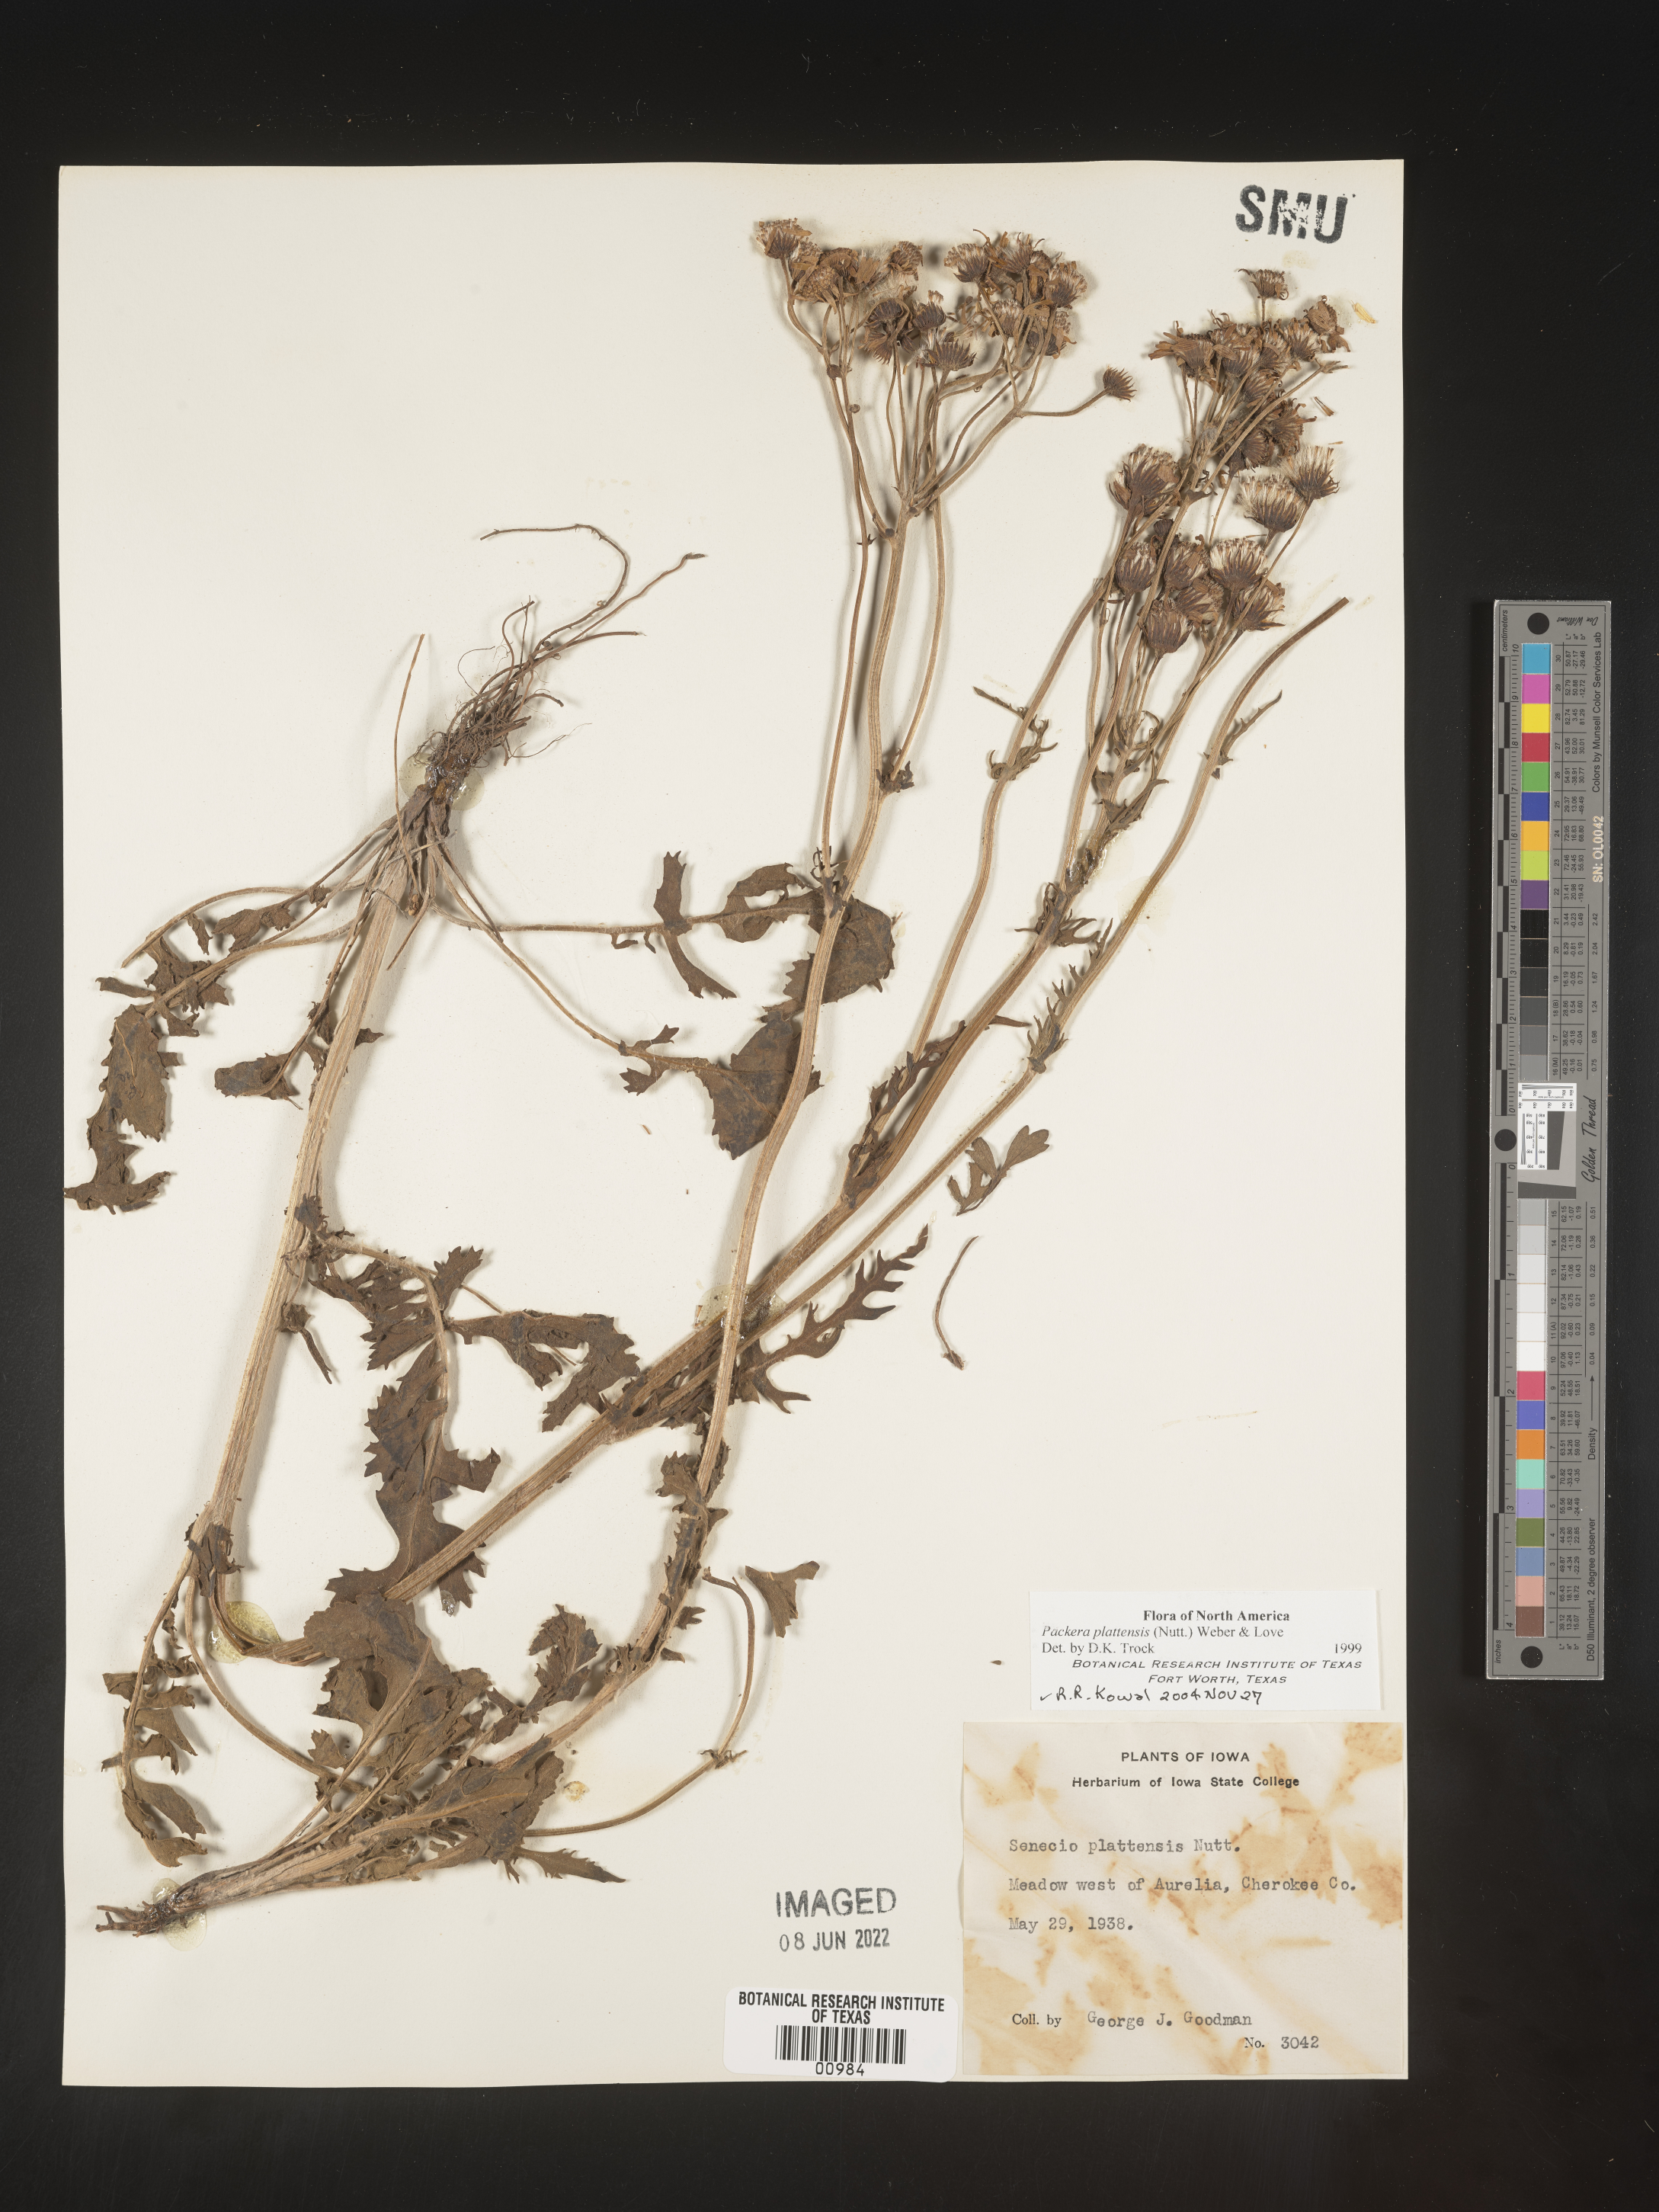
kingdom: Plantae
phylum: Tracheophyta
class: Magnoliopsida
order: Asterales
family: Asteraceae
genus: Packera
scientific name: Packera plattensis
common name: Prairie groundsel
